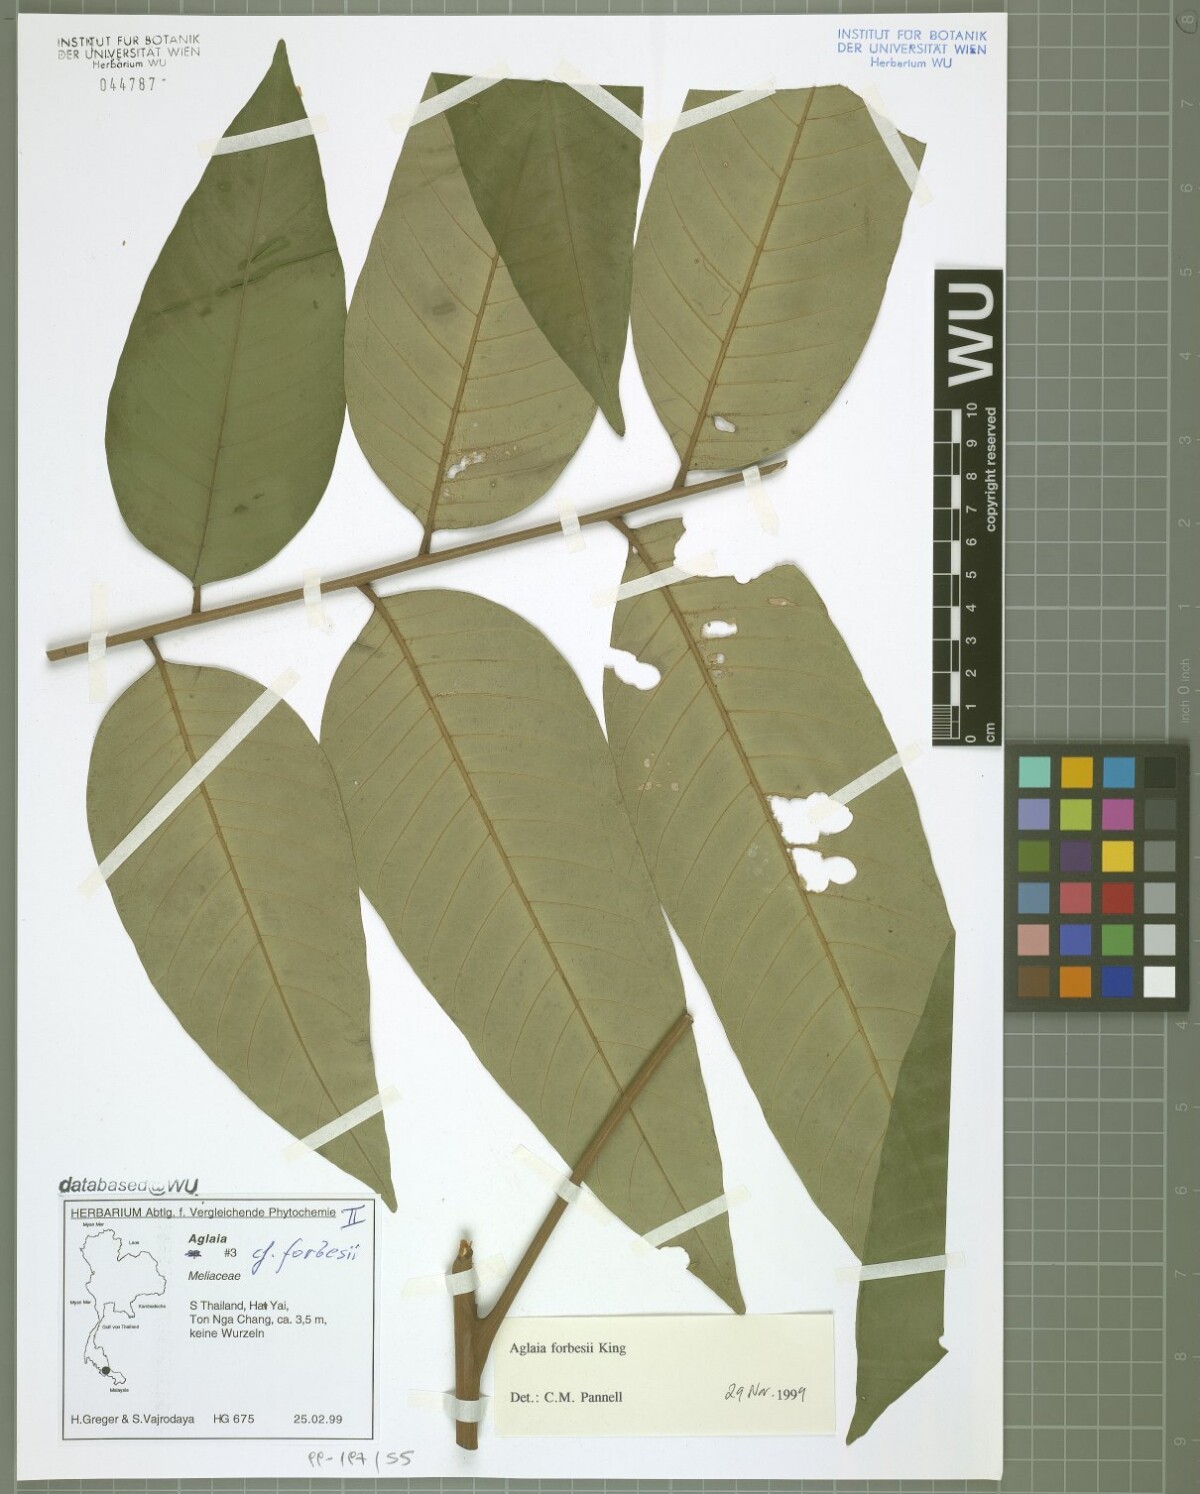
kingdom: Plantae
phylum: Tracheophyta
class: Magnoliopsida
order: Sapindales
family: Meliaceae
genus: Aglaia
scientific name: Aglaia forbesii
